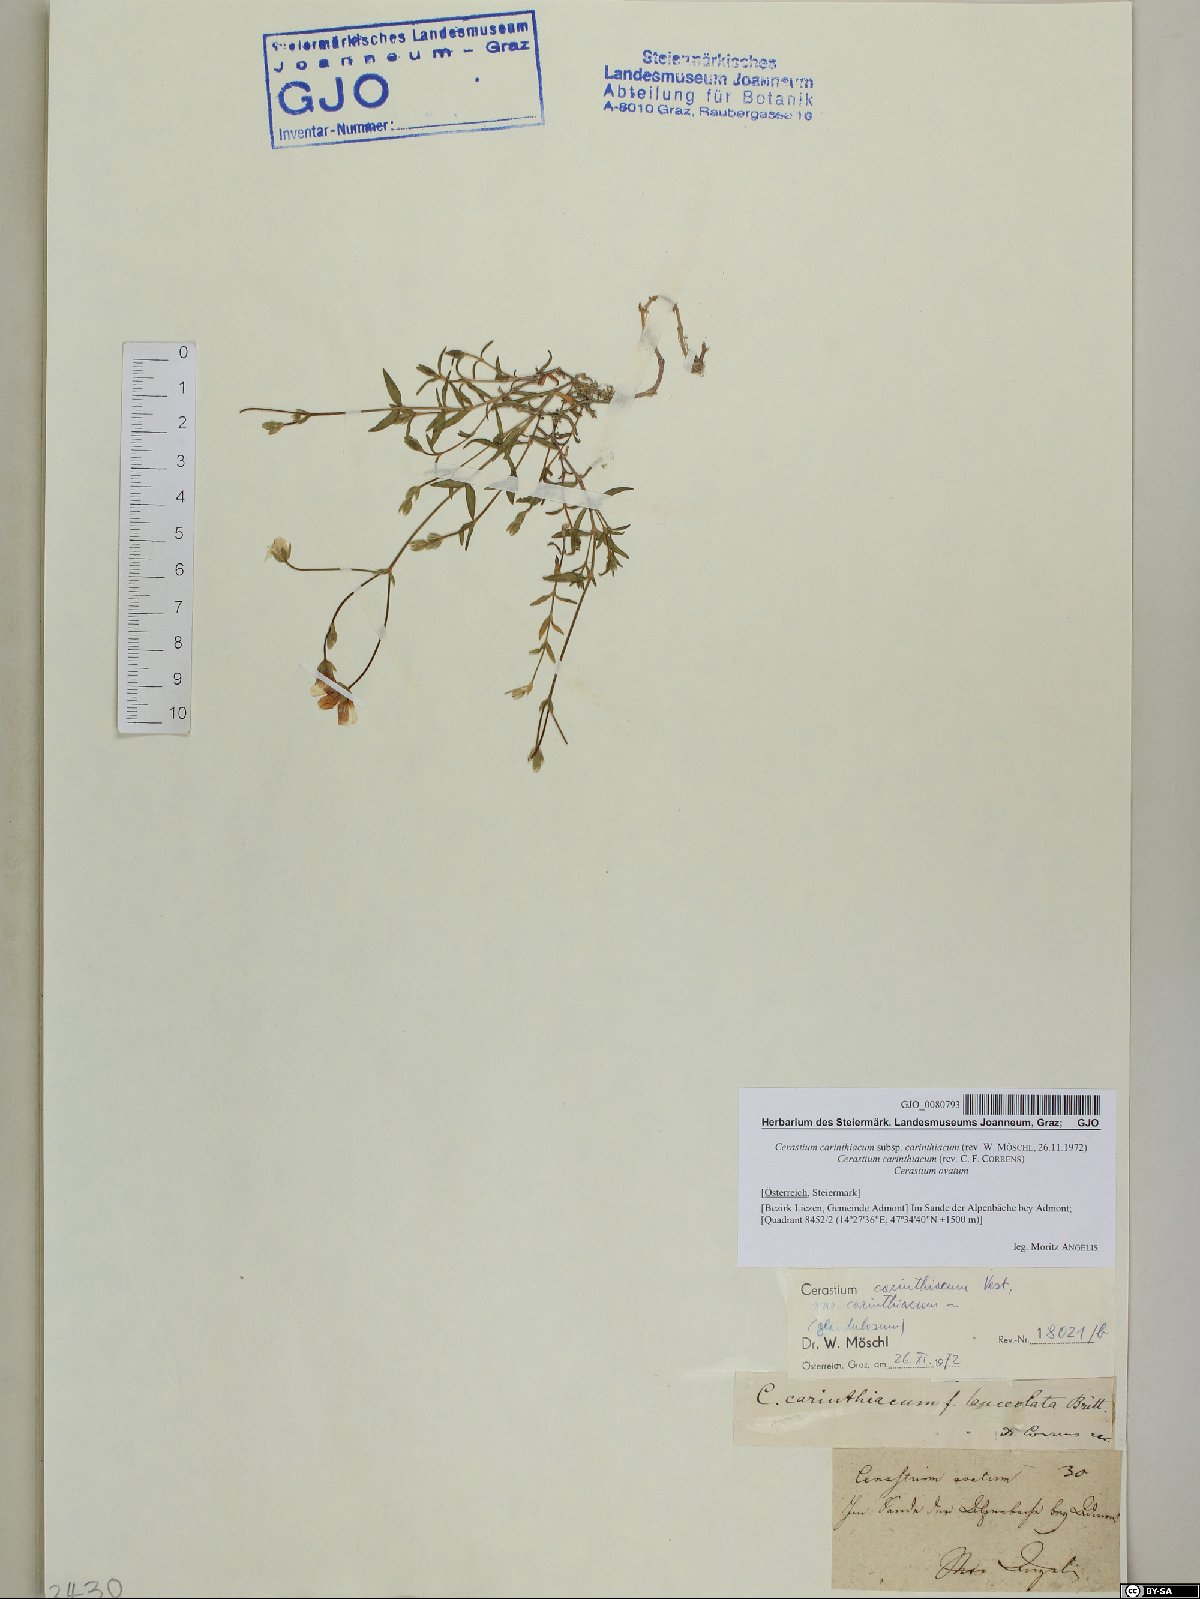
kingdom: Plantae
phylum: Tracheophyta
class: Magnoliopsida
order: Caryophyllales
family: Caryophyllaceae
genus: Cerastium
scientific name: Cerastium carinthiacum
